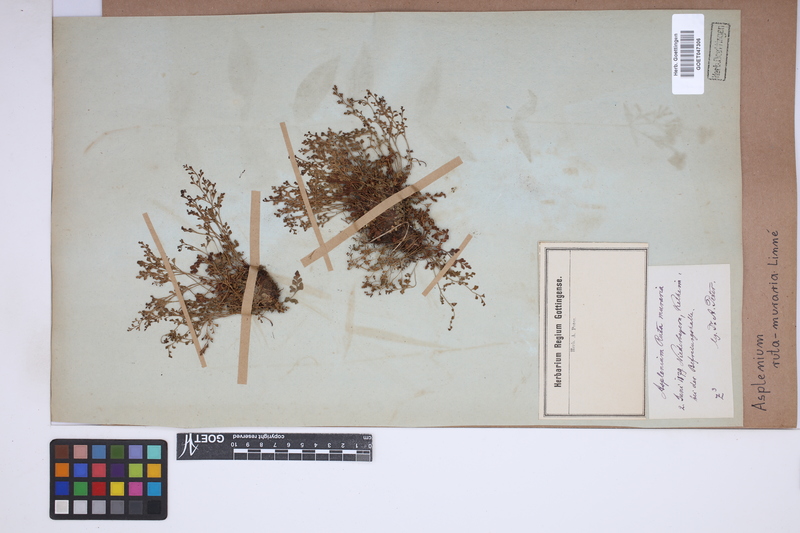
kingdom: Plantae
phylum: Tracheophyta
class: Polypodiopsida
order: Polypodiales
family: Aspleniaceae
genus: Asplenium
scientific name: Asplenium ruta-muraria
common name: Wall-rue
